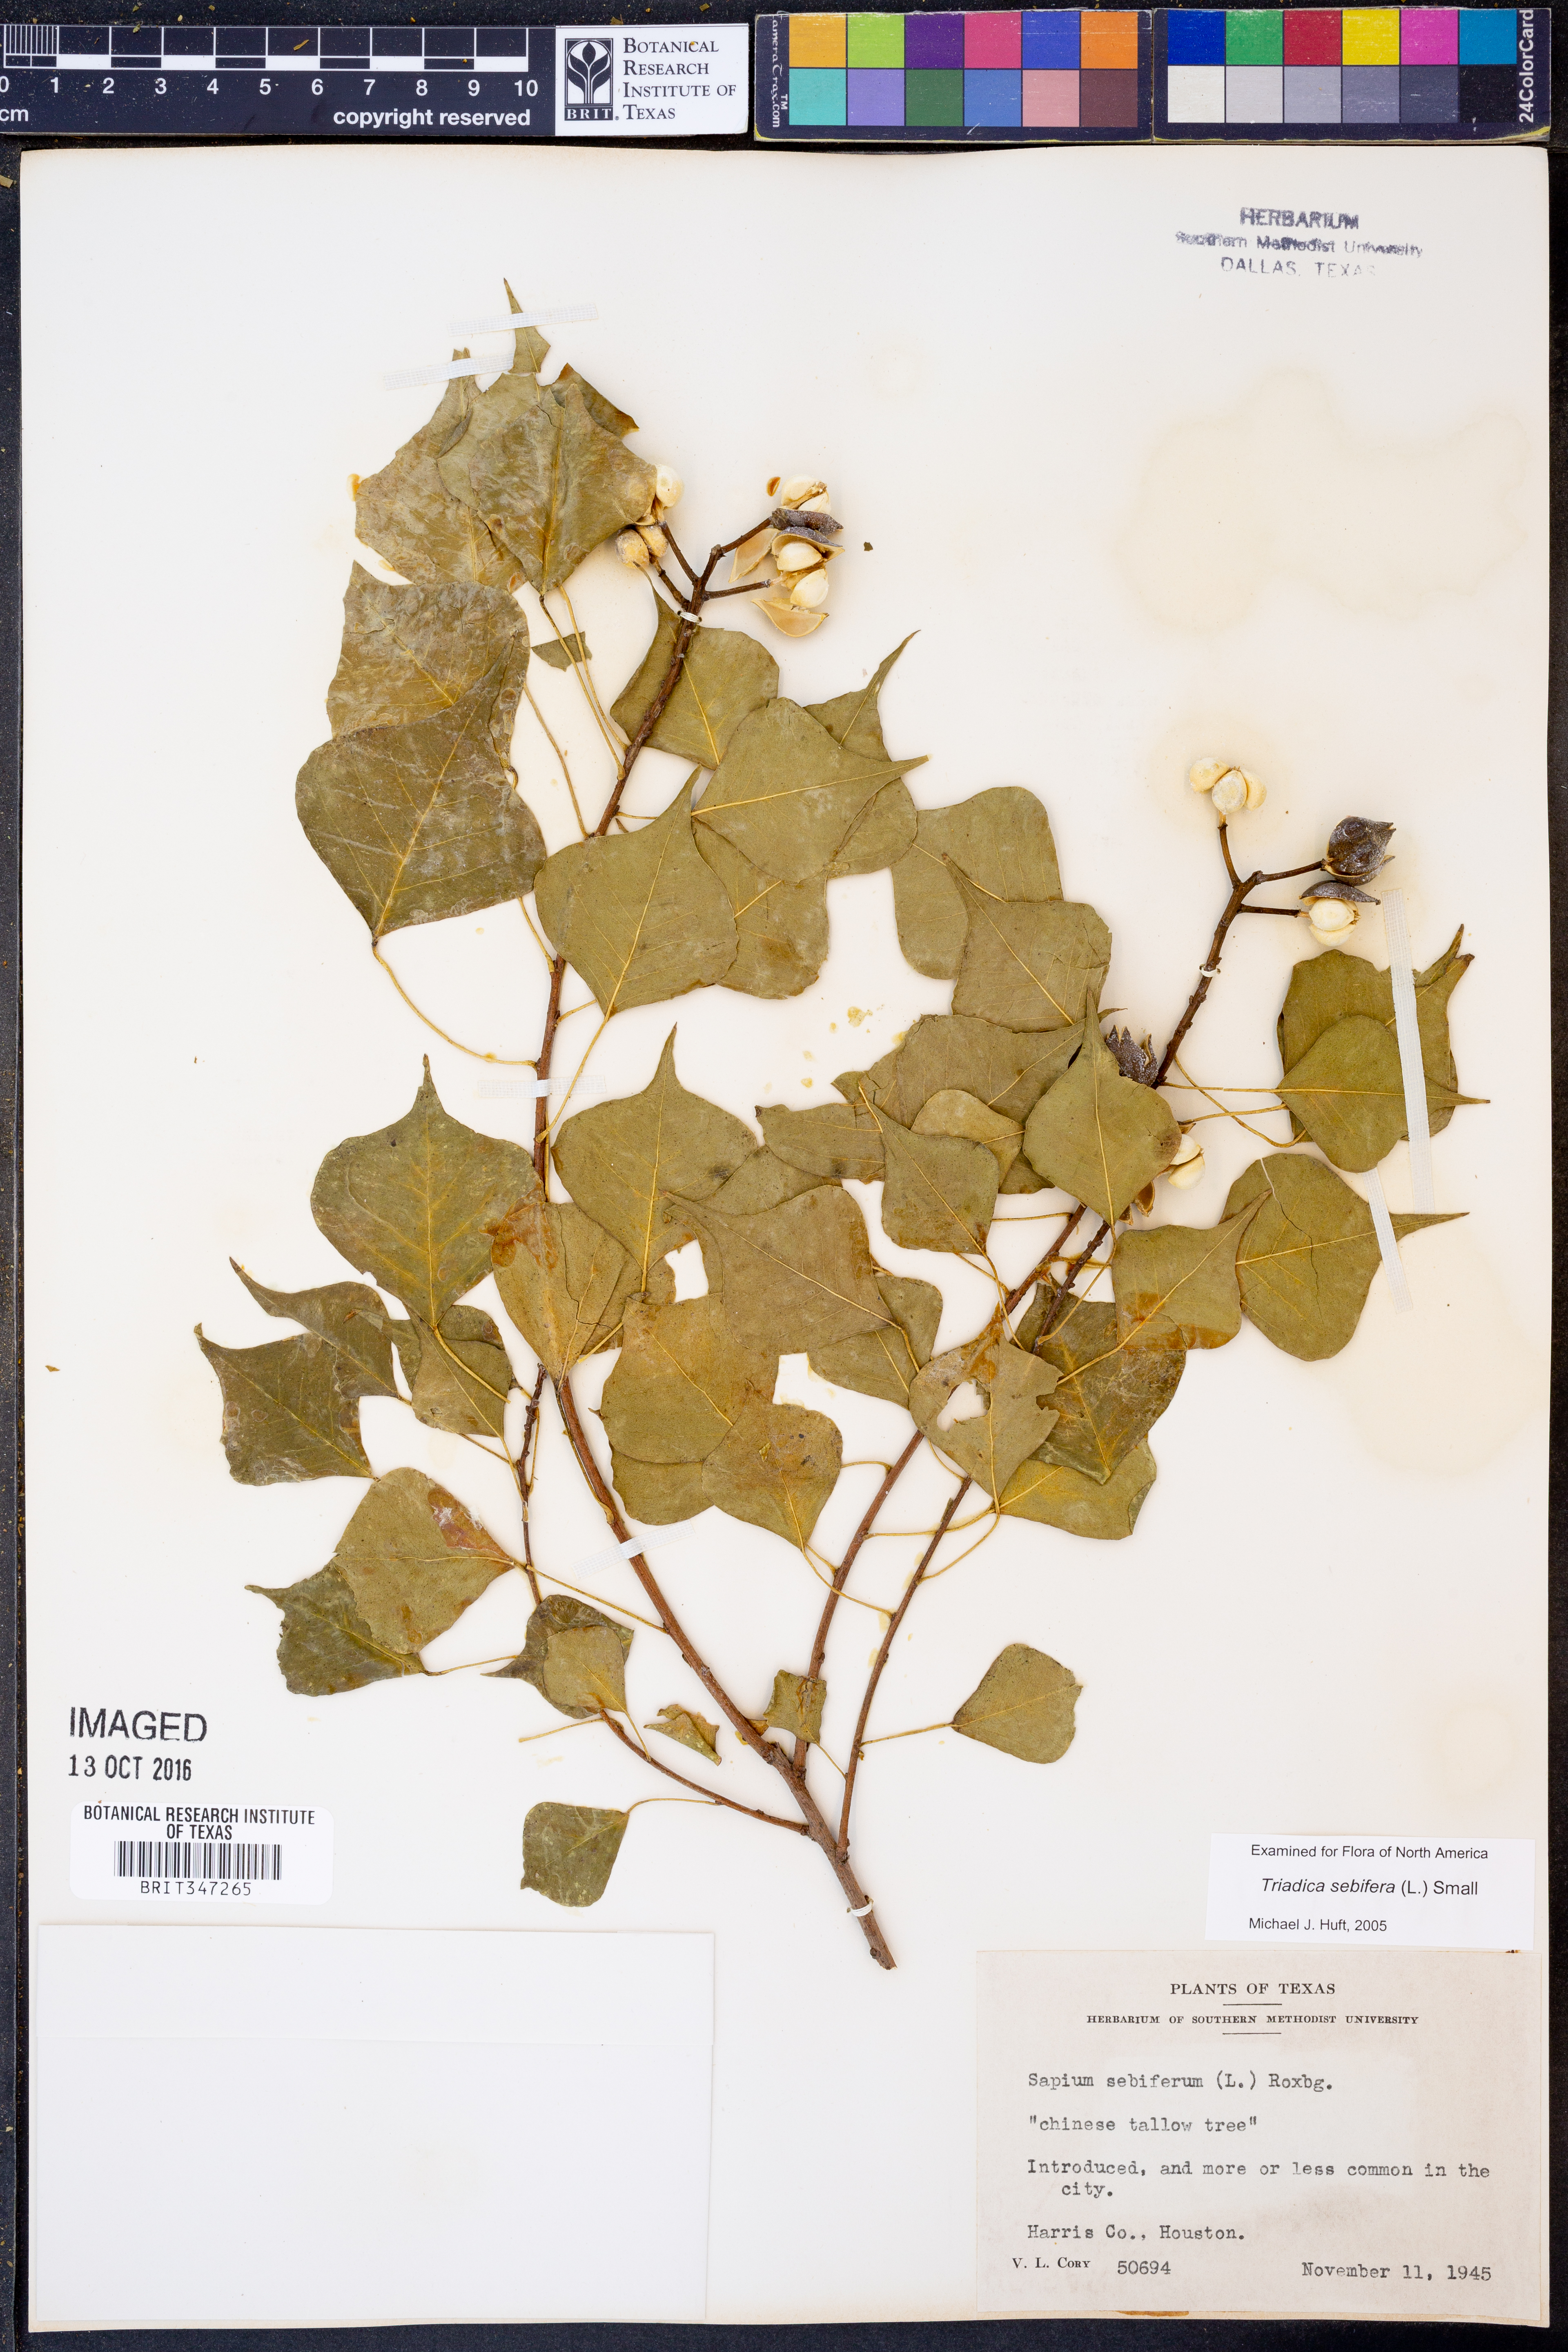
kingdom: Plantae
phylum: Tracheophyta
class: Magnoliopsida
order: Malpighiales
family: Euphorbiaceae
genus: Triadica
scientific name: Triadica sebifera
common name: Chinese tallow
